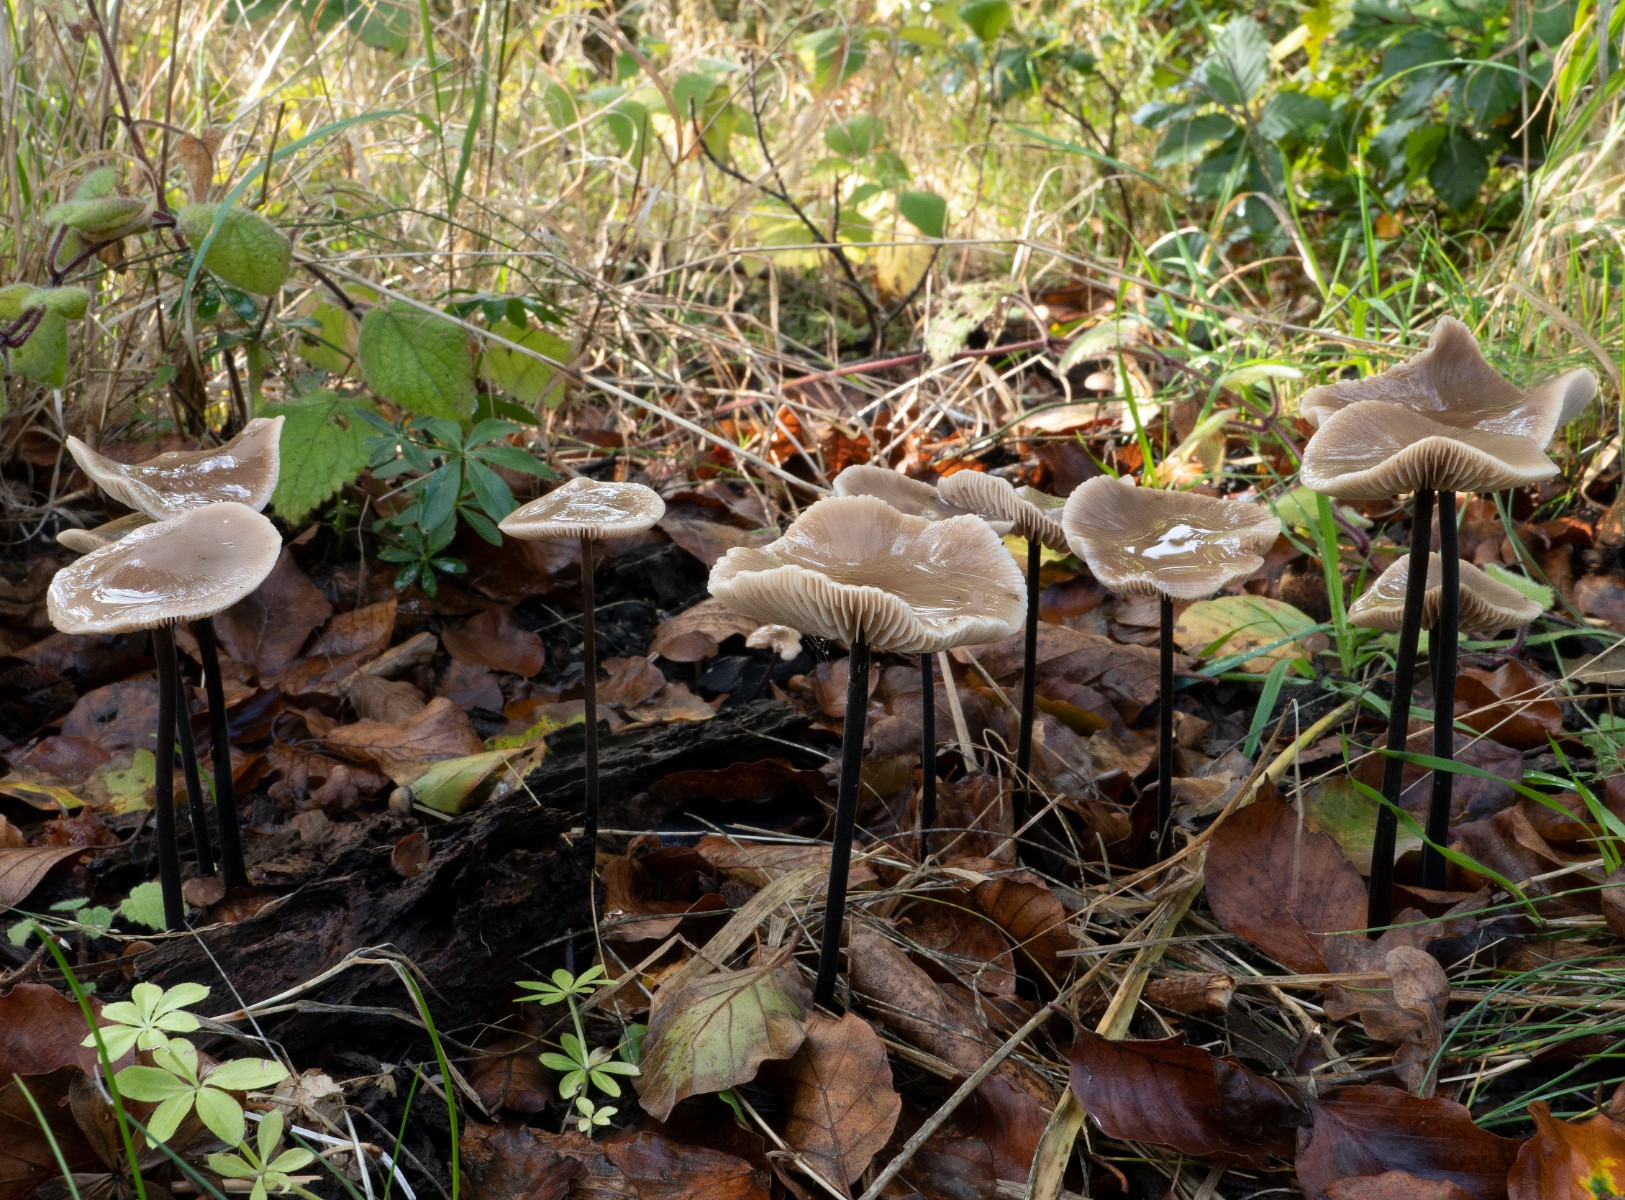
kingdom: Fungi
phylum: Basidiomycota
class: Agaricomycetes
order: Agaricales
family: Omphalotaceae
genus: Mycetinis
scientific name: Mycetinis alliaceus
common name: stor løghat
